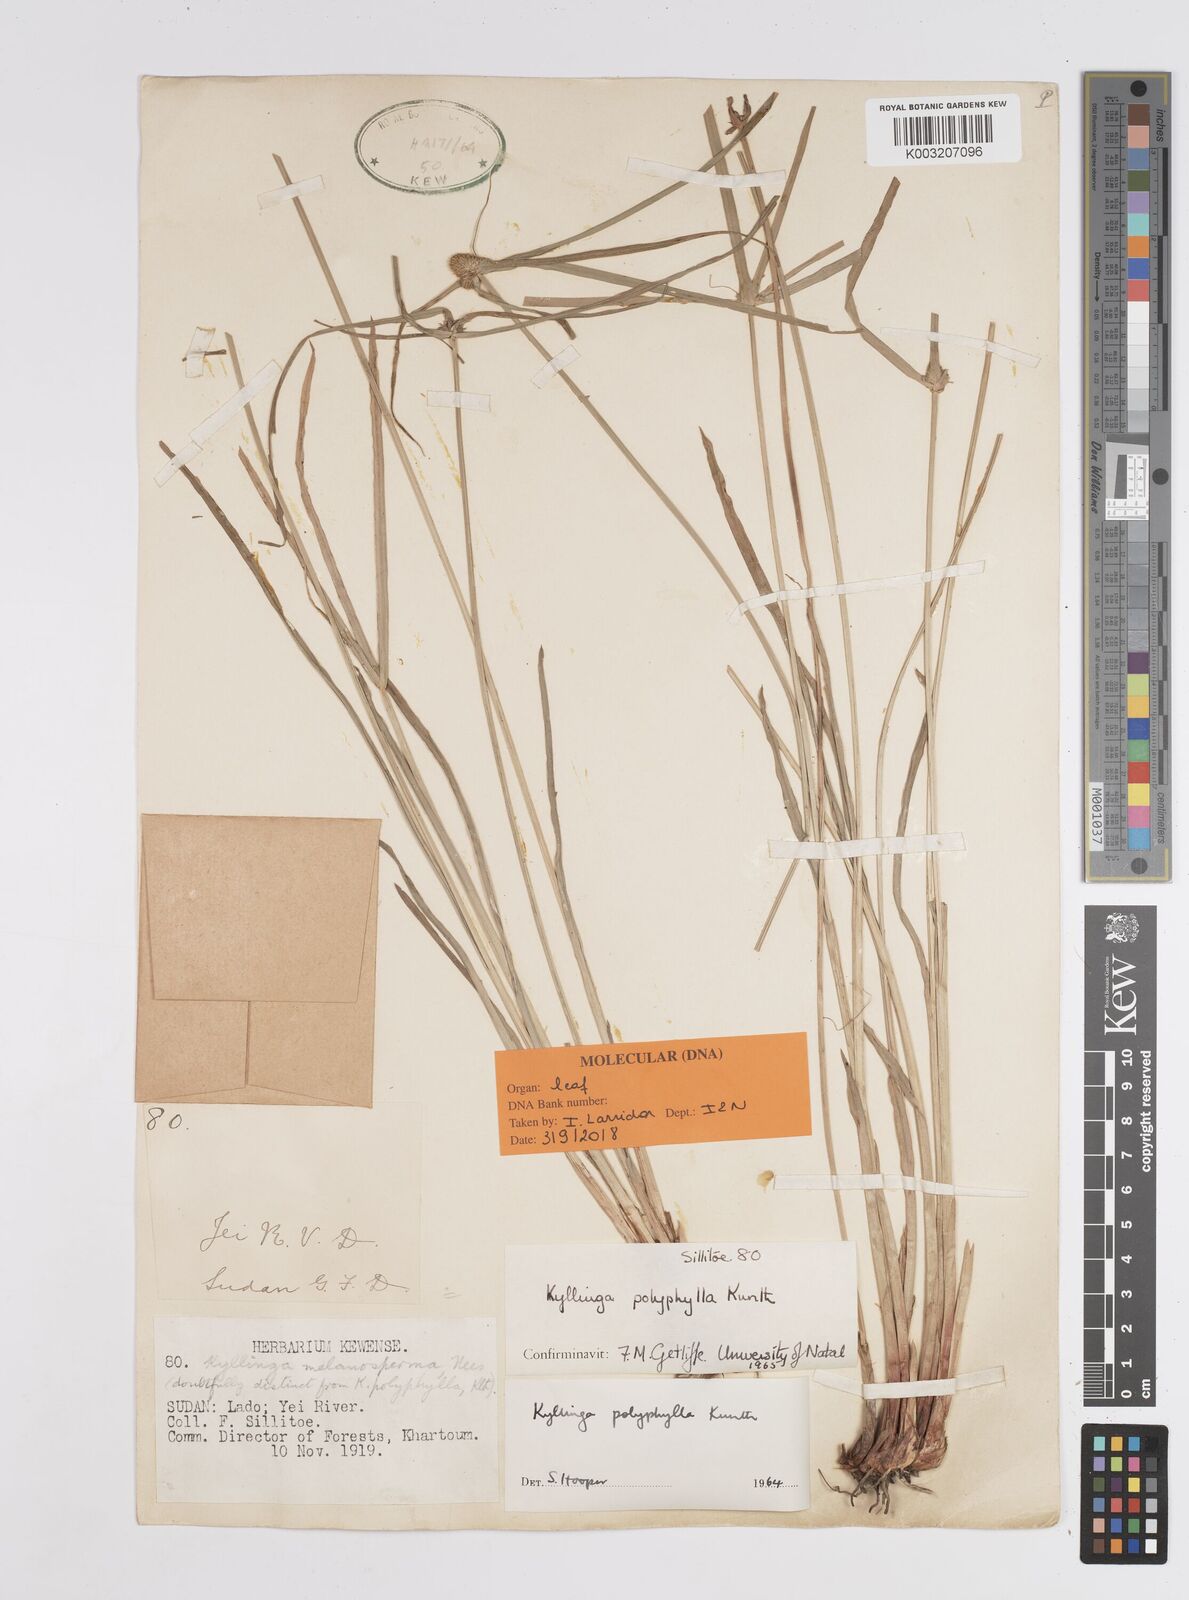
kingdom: Plantae
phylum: Tracheophyta
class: Liliopsida
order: Poales
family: Cyperaceae
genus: Cyperus
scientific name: Cyperus
